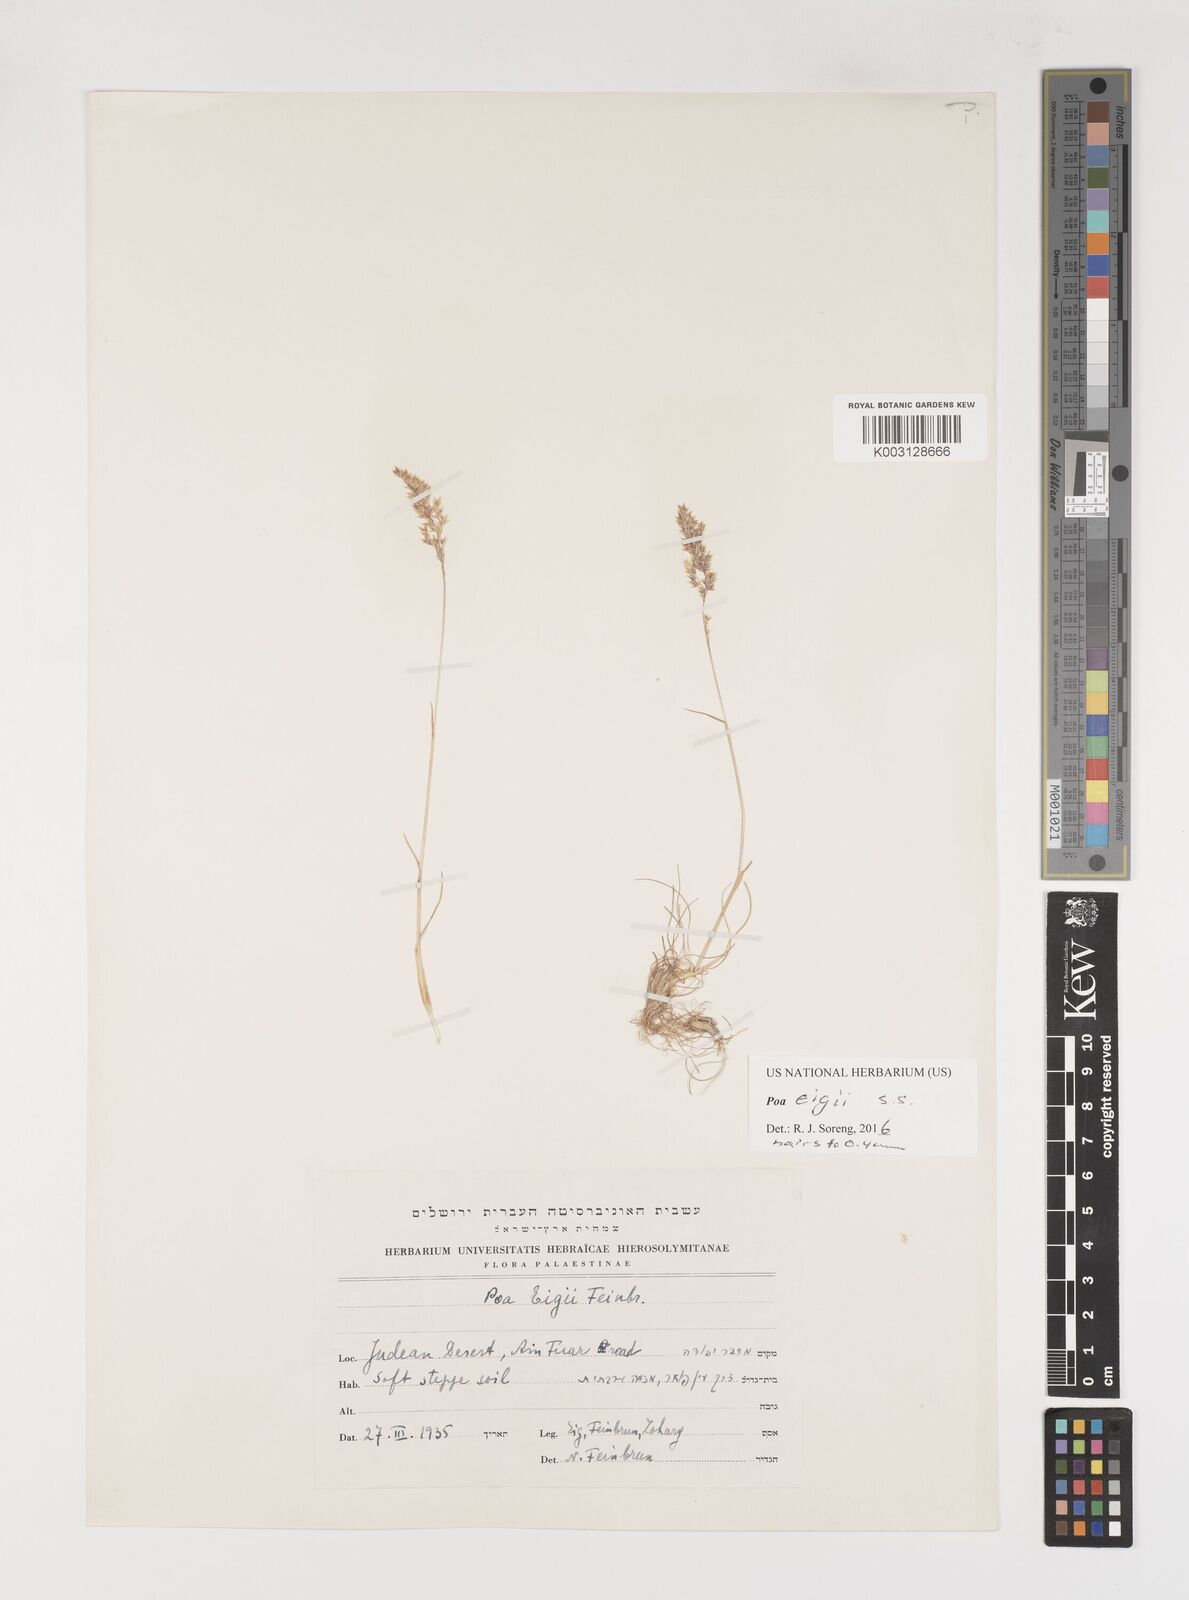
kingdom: Plantae
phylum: Tracheophyta
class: Liliopsida
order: Poales
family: Poaceae
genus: Poa
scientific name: Poa bulbosa
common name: Bulbous bluegrass
